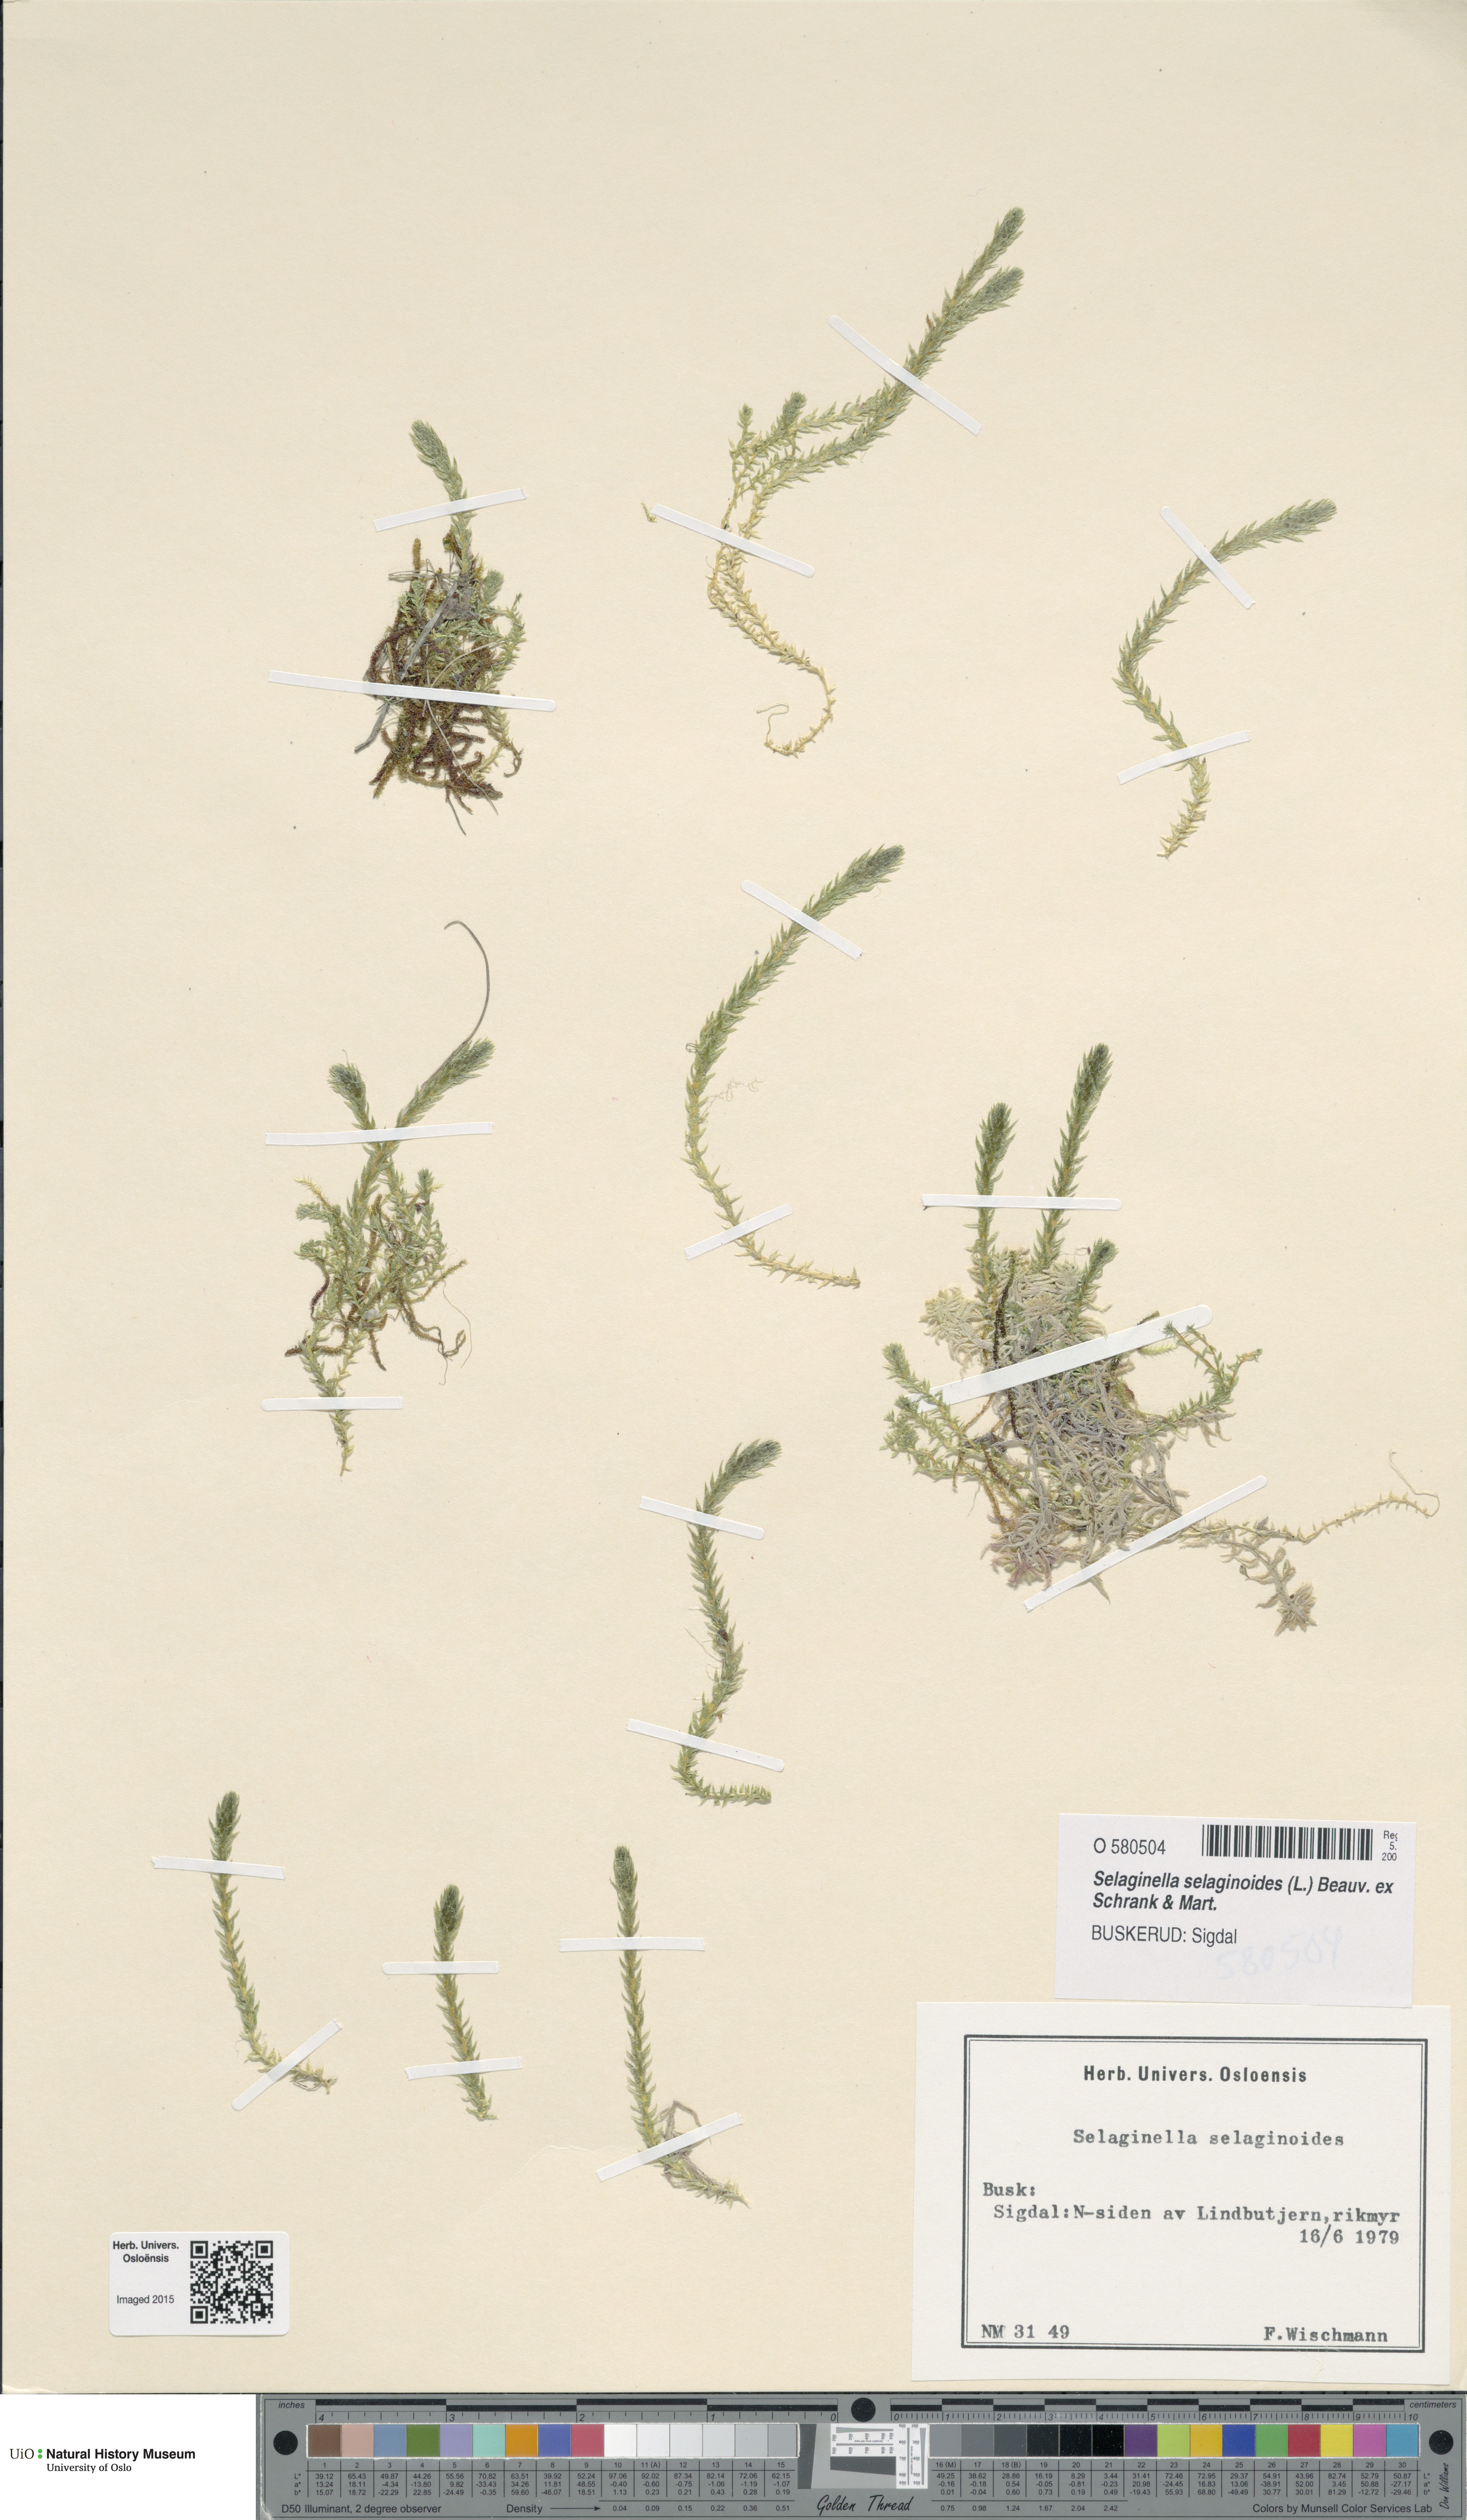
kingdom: Plantae
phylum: Tracheophyta
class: Lycopodiopsida
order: Selaginellales
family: Selaginellaceae
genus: Selaginella
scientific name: Selaginella selaginoides
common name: Prickly mountain-moss
